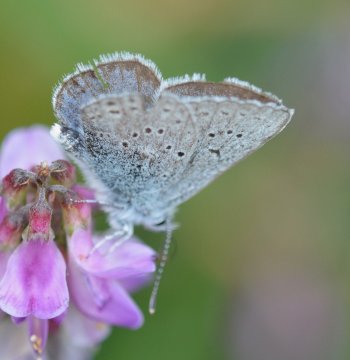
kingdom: Animalia
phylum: Arthropoda
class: Insecta
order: Lepidoptera
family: Lycaenidae
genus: Plebejus
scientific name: Plebejus saepiolus
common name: Greenish Blue
